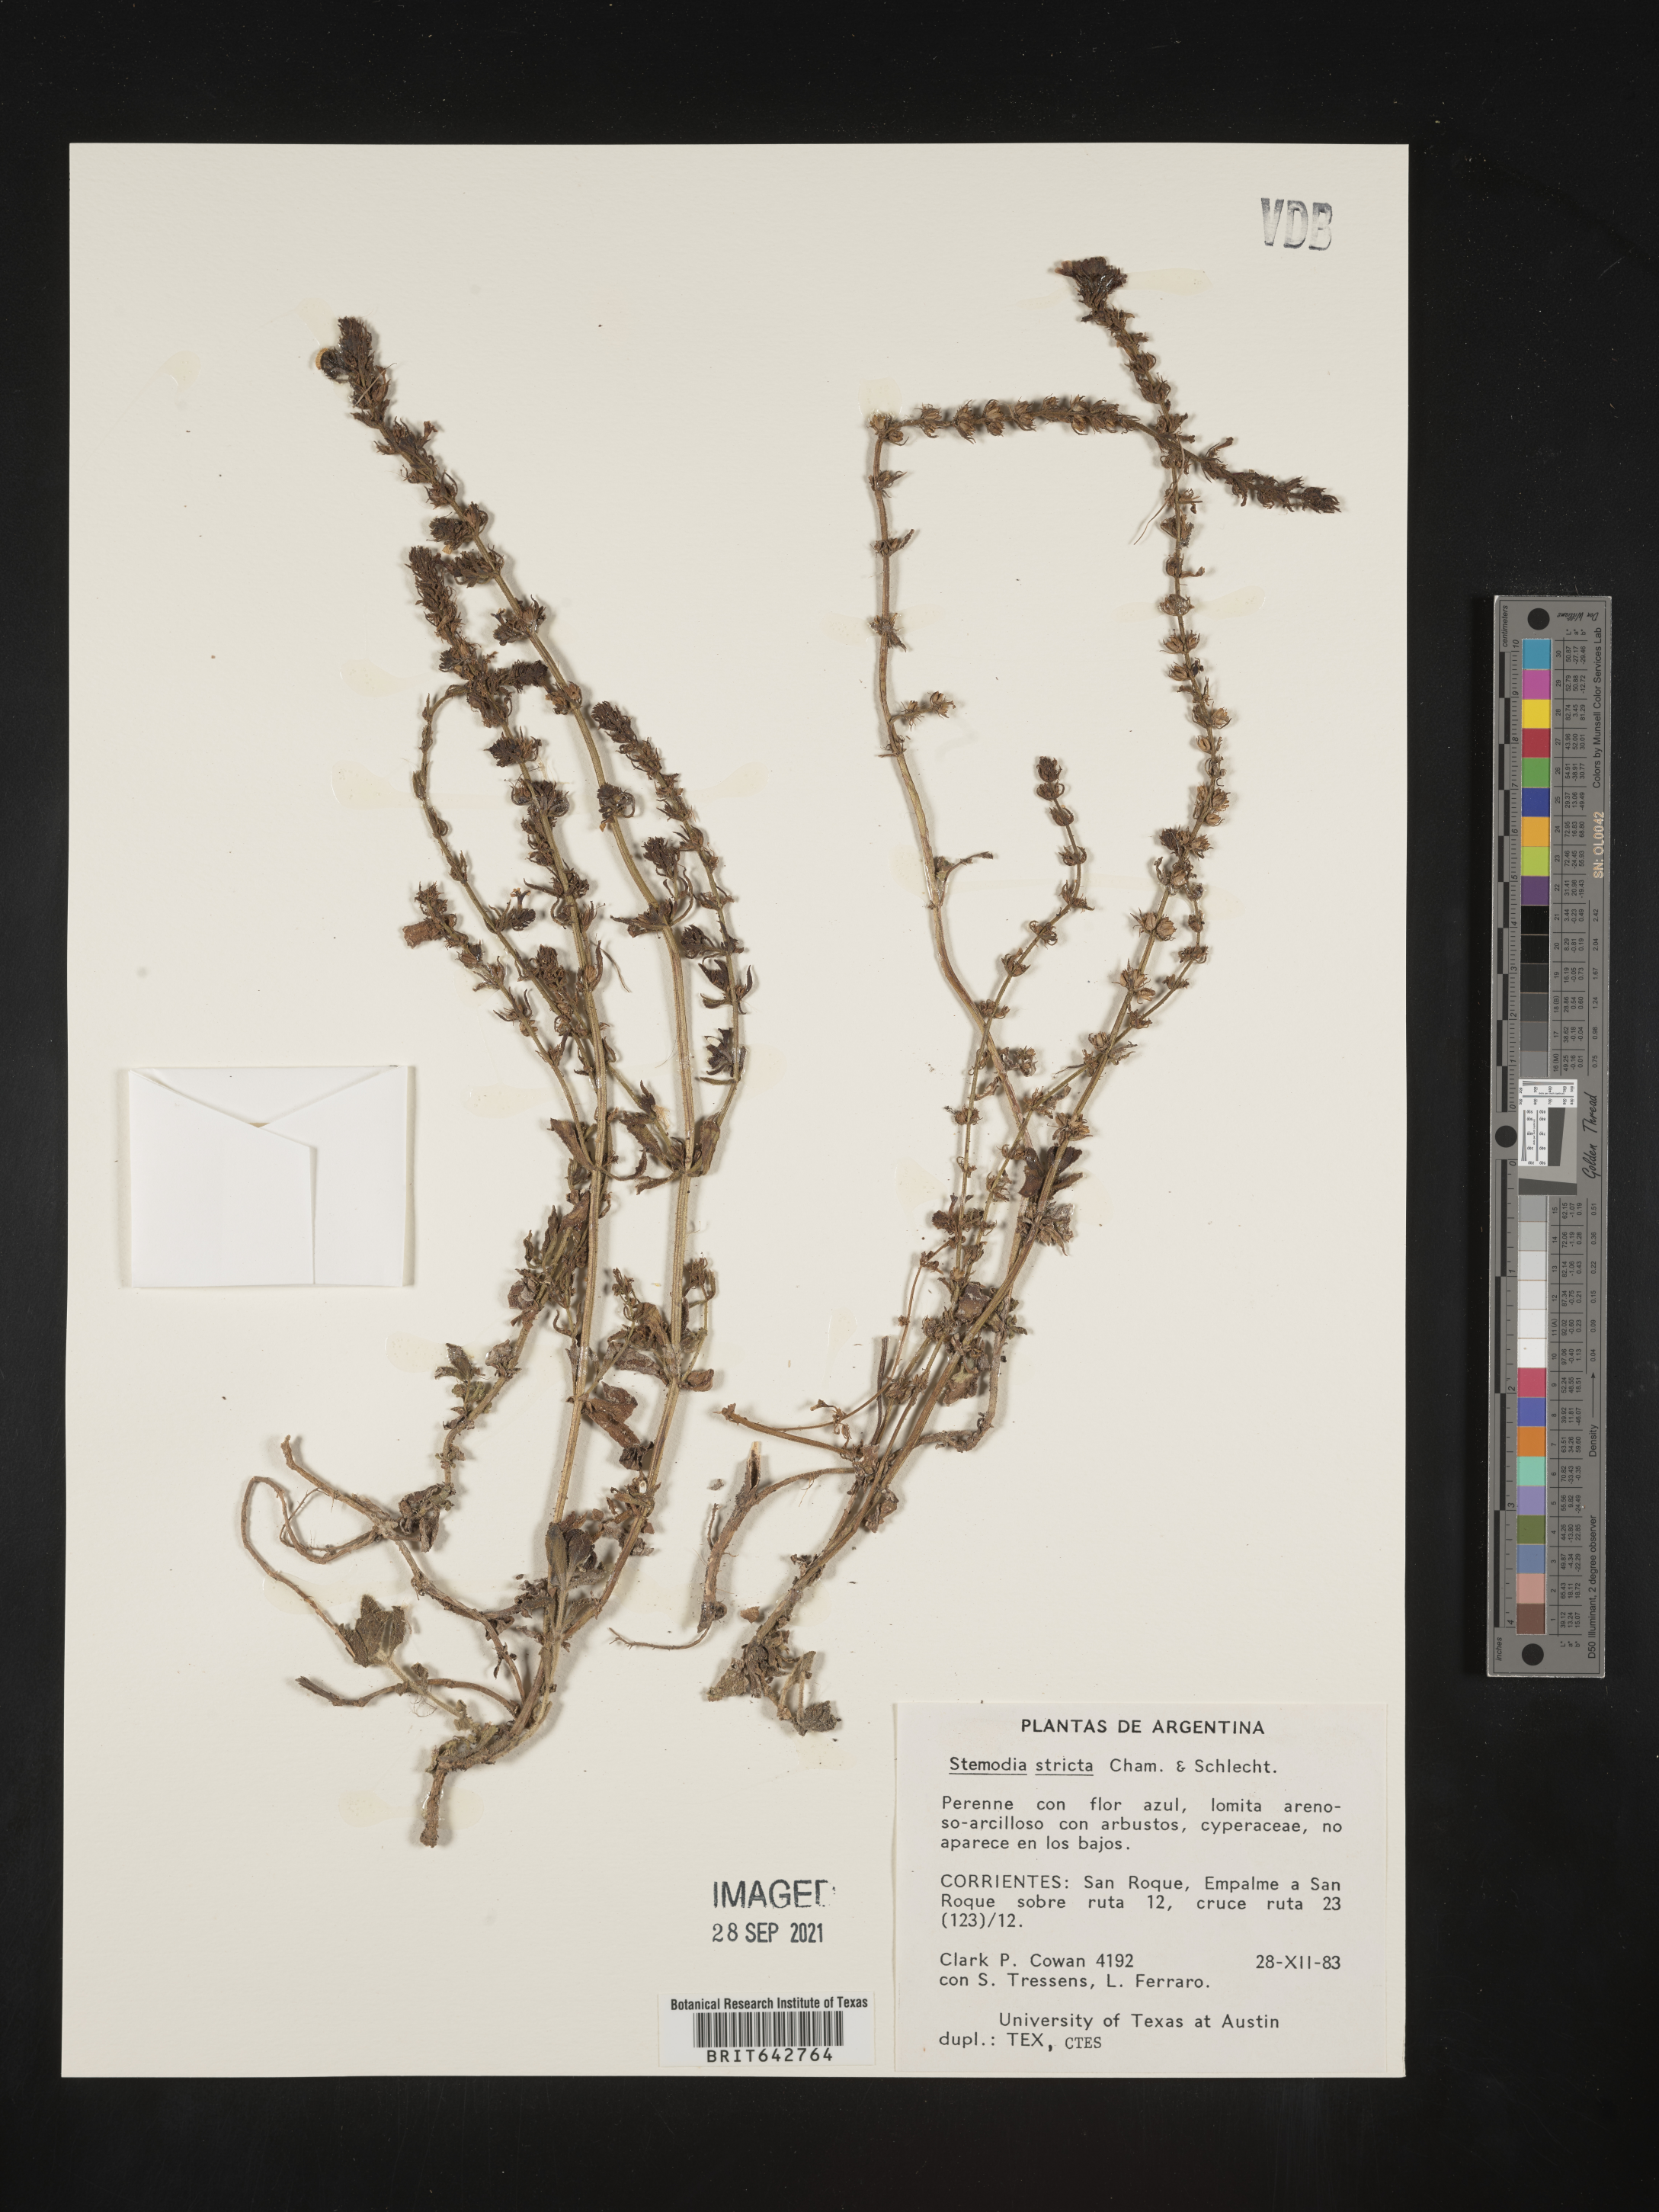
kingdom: Plantae
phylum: Tracheophyta
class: Magnoliopsida
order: Lamiales
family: Plantaginaceae
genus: Stemodia
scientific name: Stemodia
